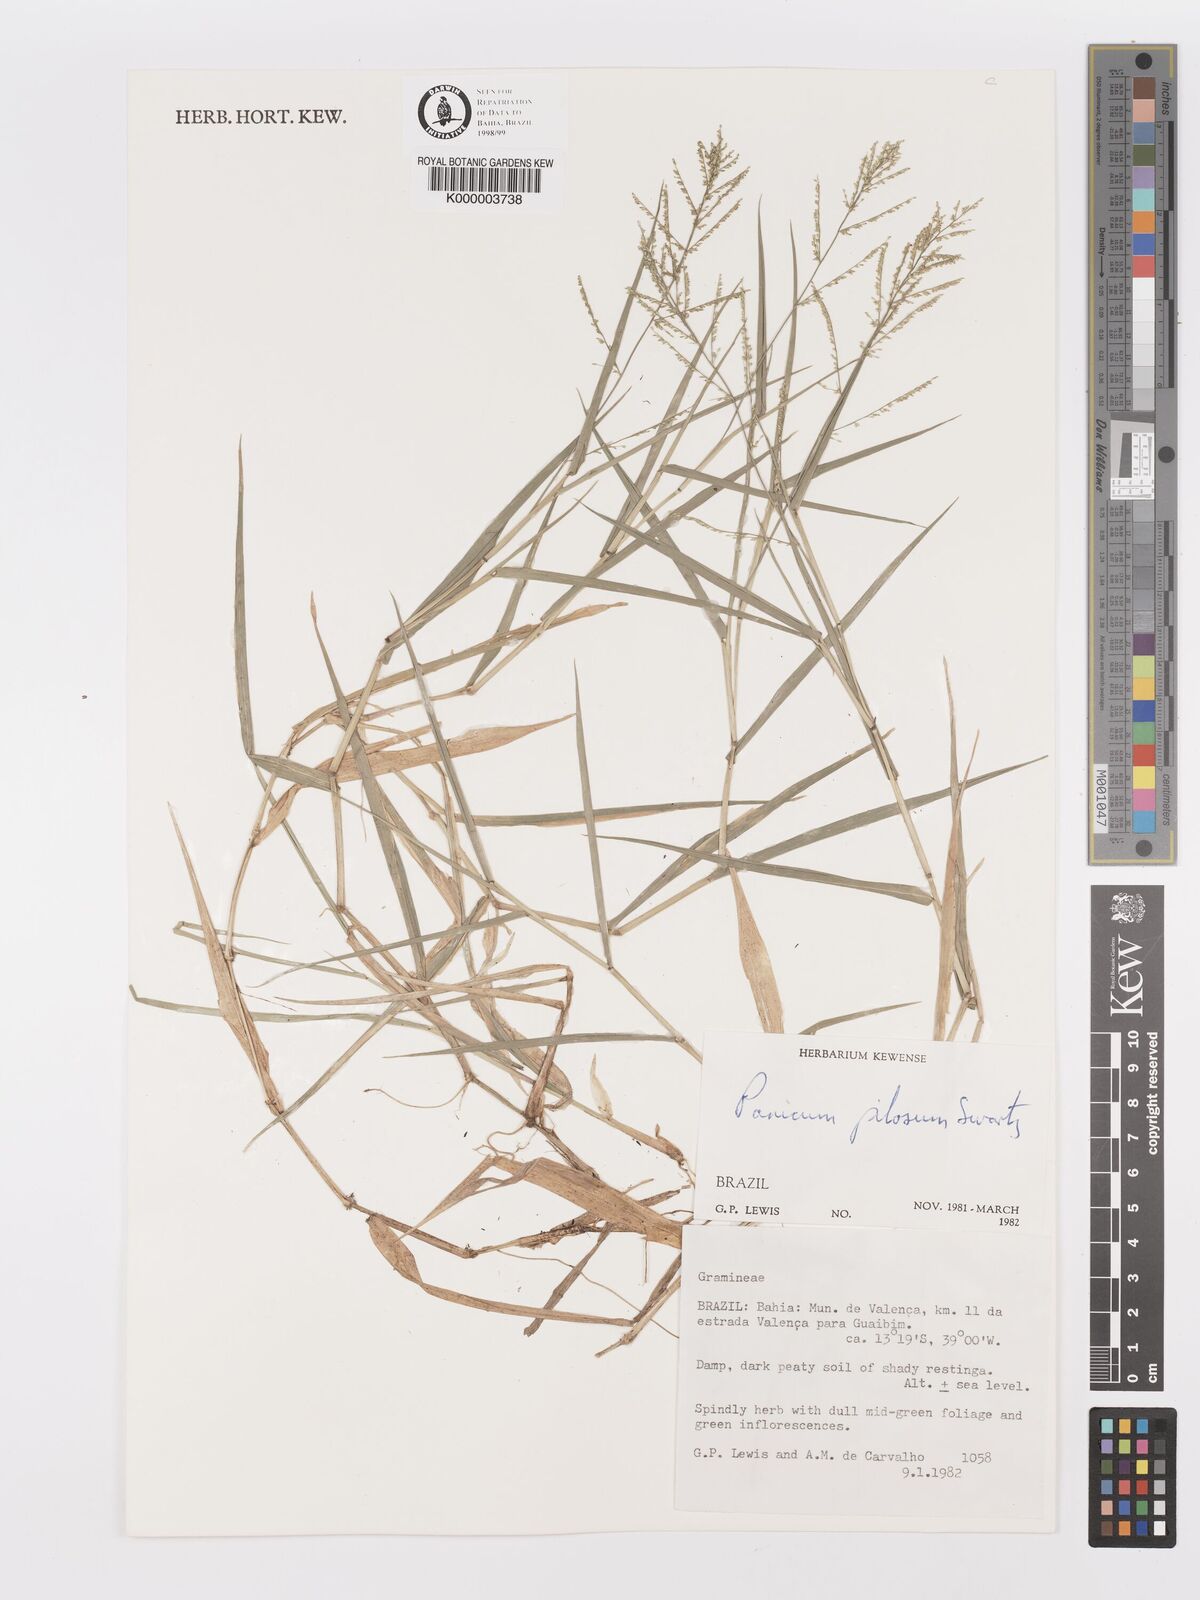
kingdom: Plantae
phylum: Tracheophyta
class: Liliopsida
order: Poales
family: Poaceae
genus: Rugoloa
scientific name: Rugoloa pilosa
